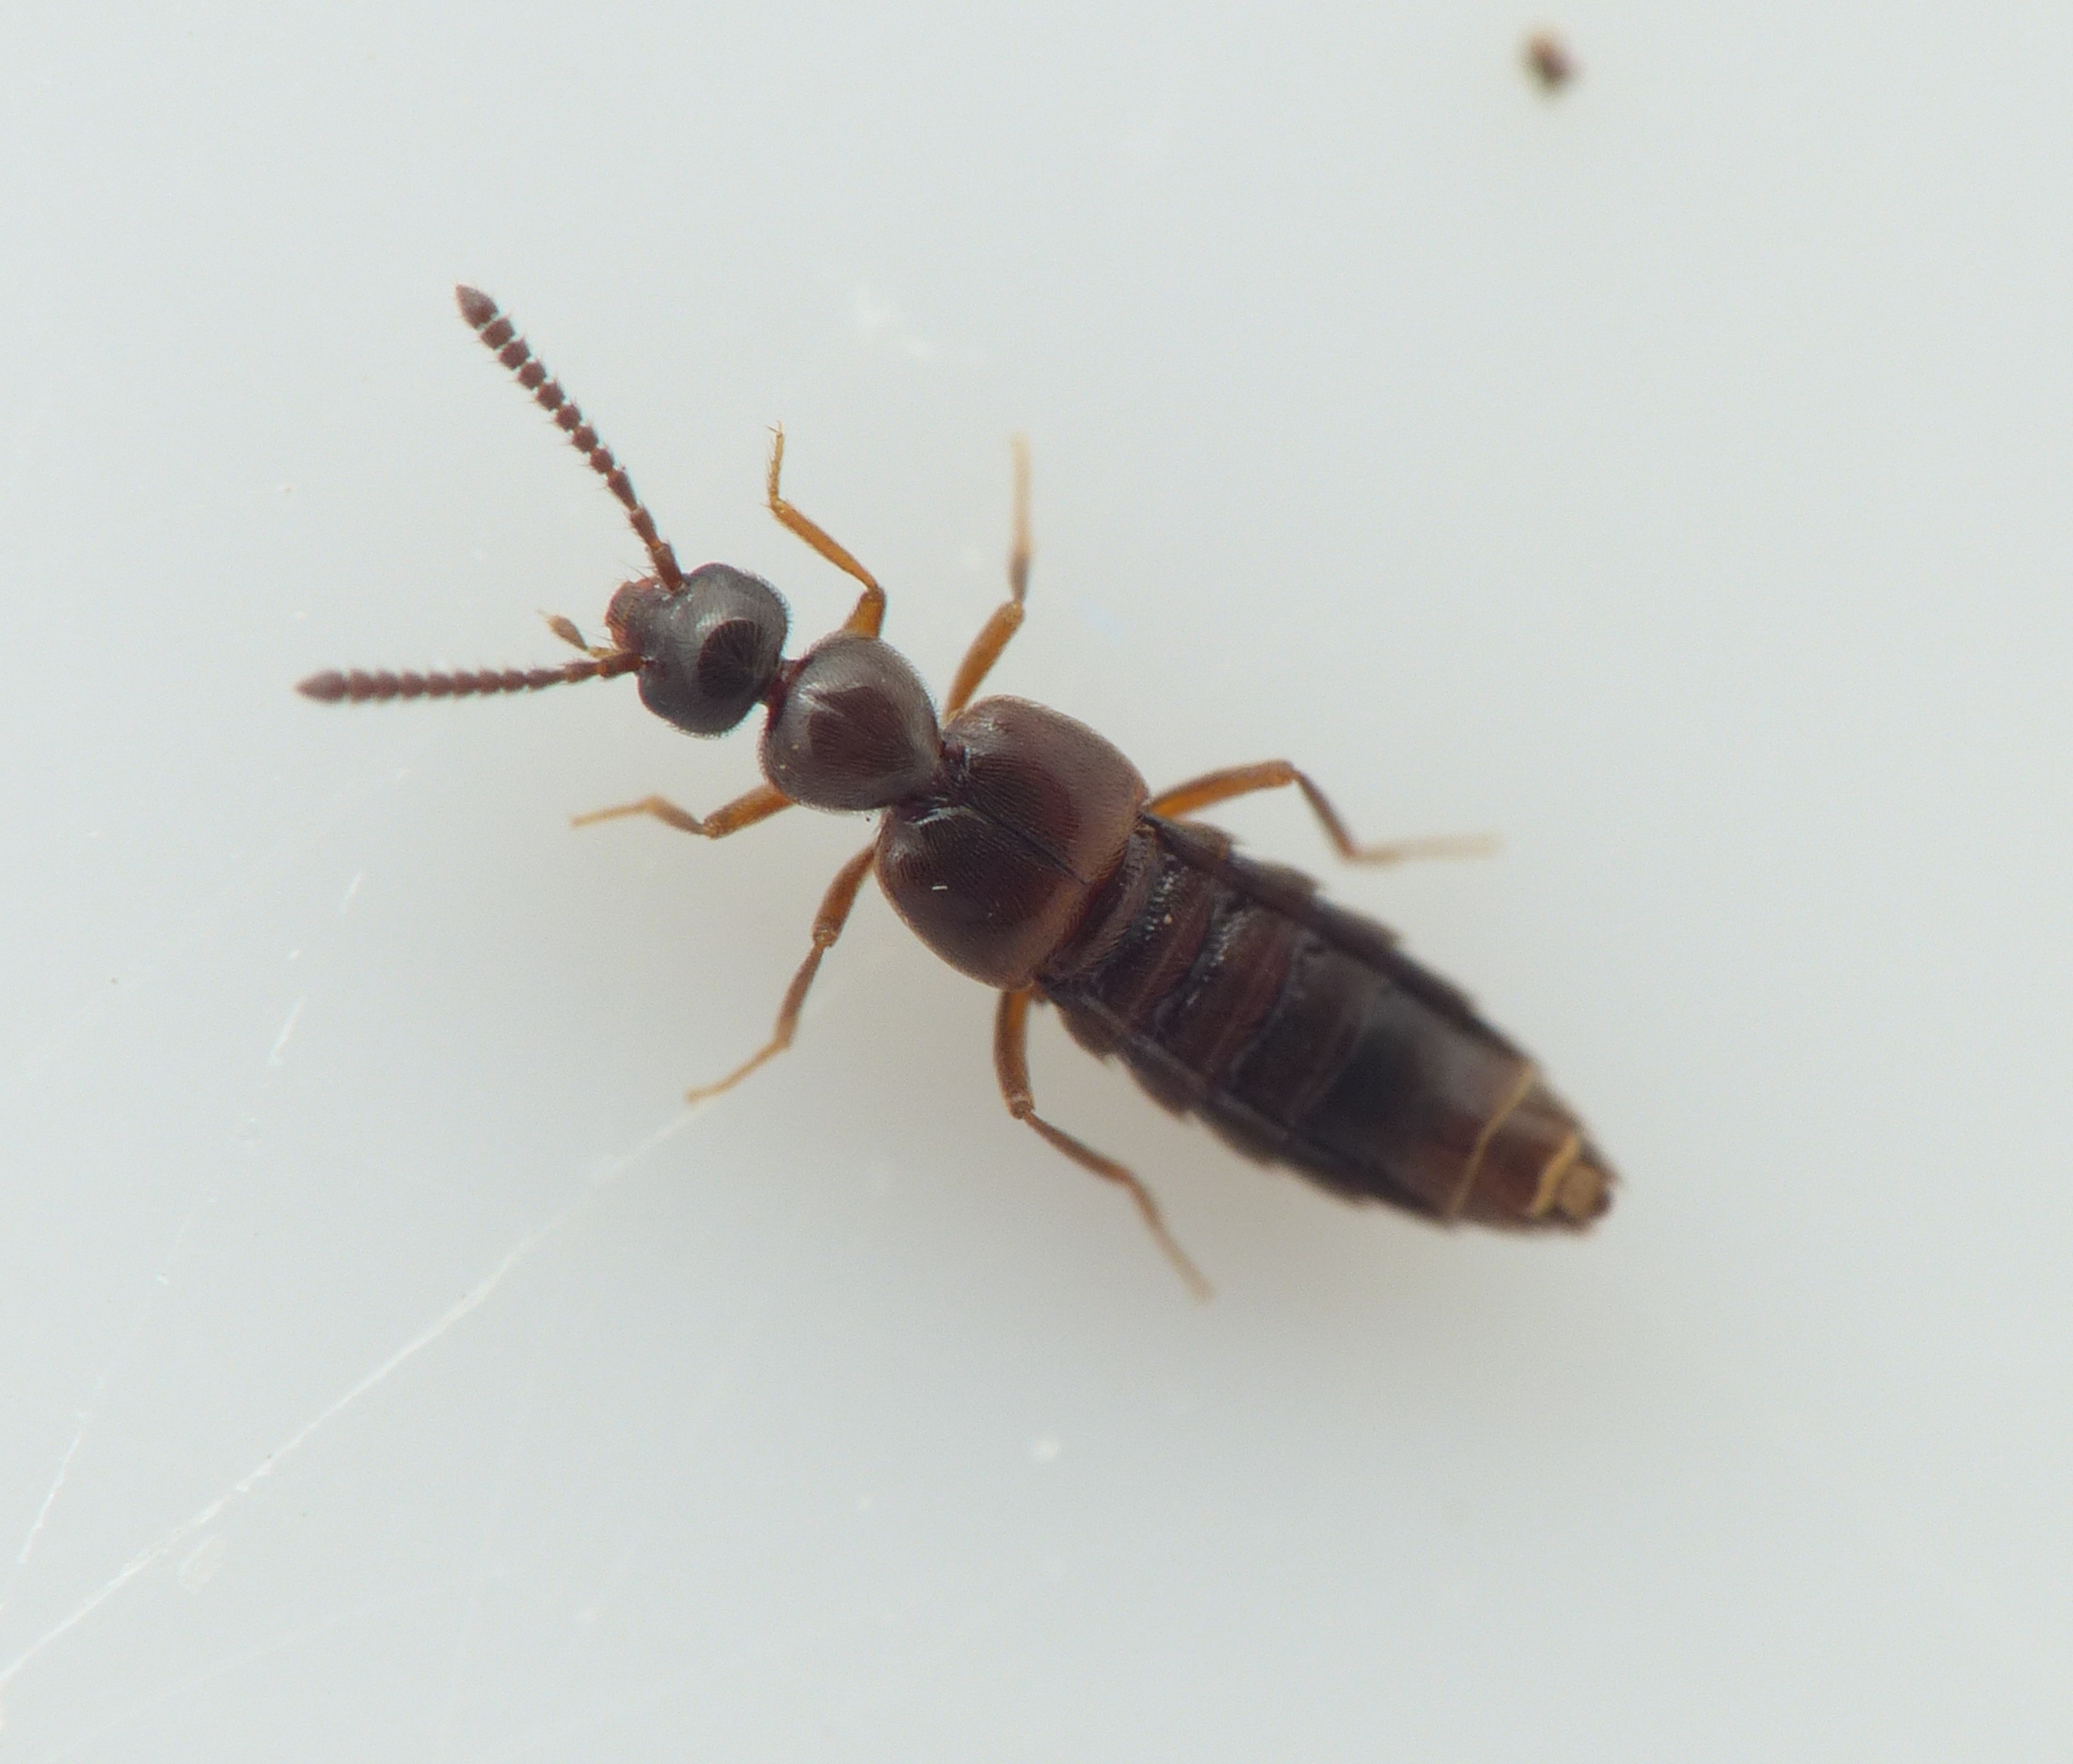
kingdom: Animalia
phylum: Arthropoda
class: Insecta
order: Coleoptera
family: Staphylinidae
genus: Cordalia
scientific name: Cordalia obscura
